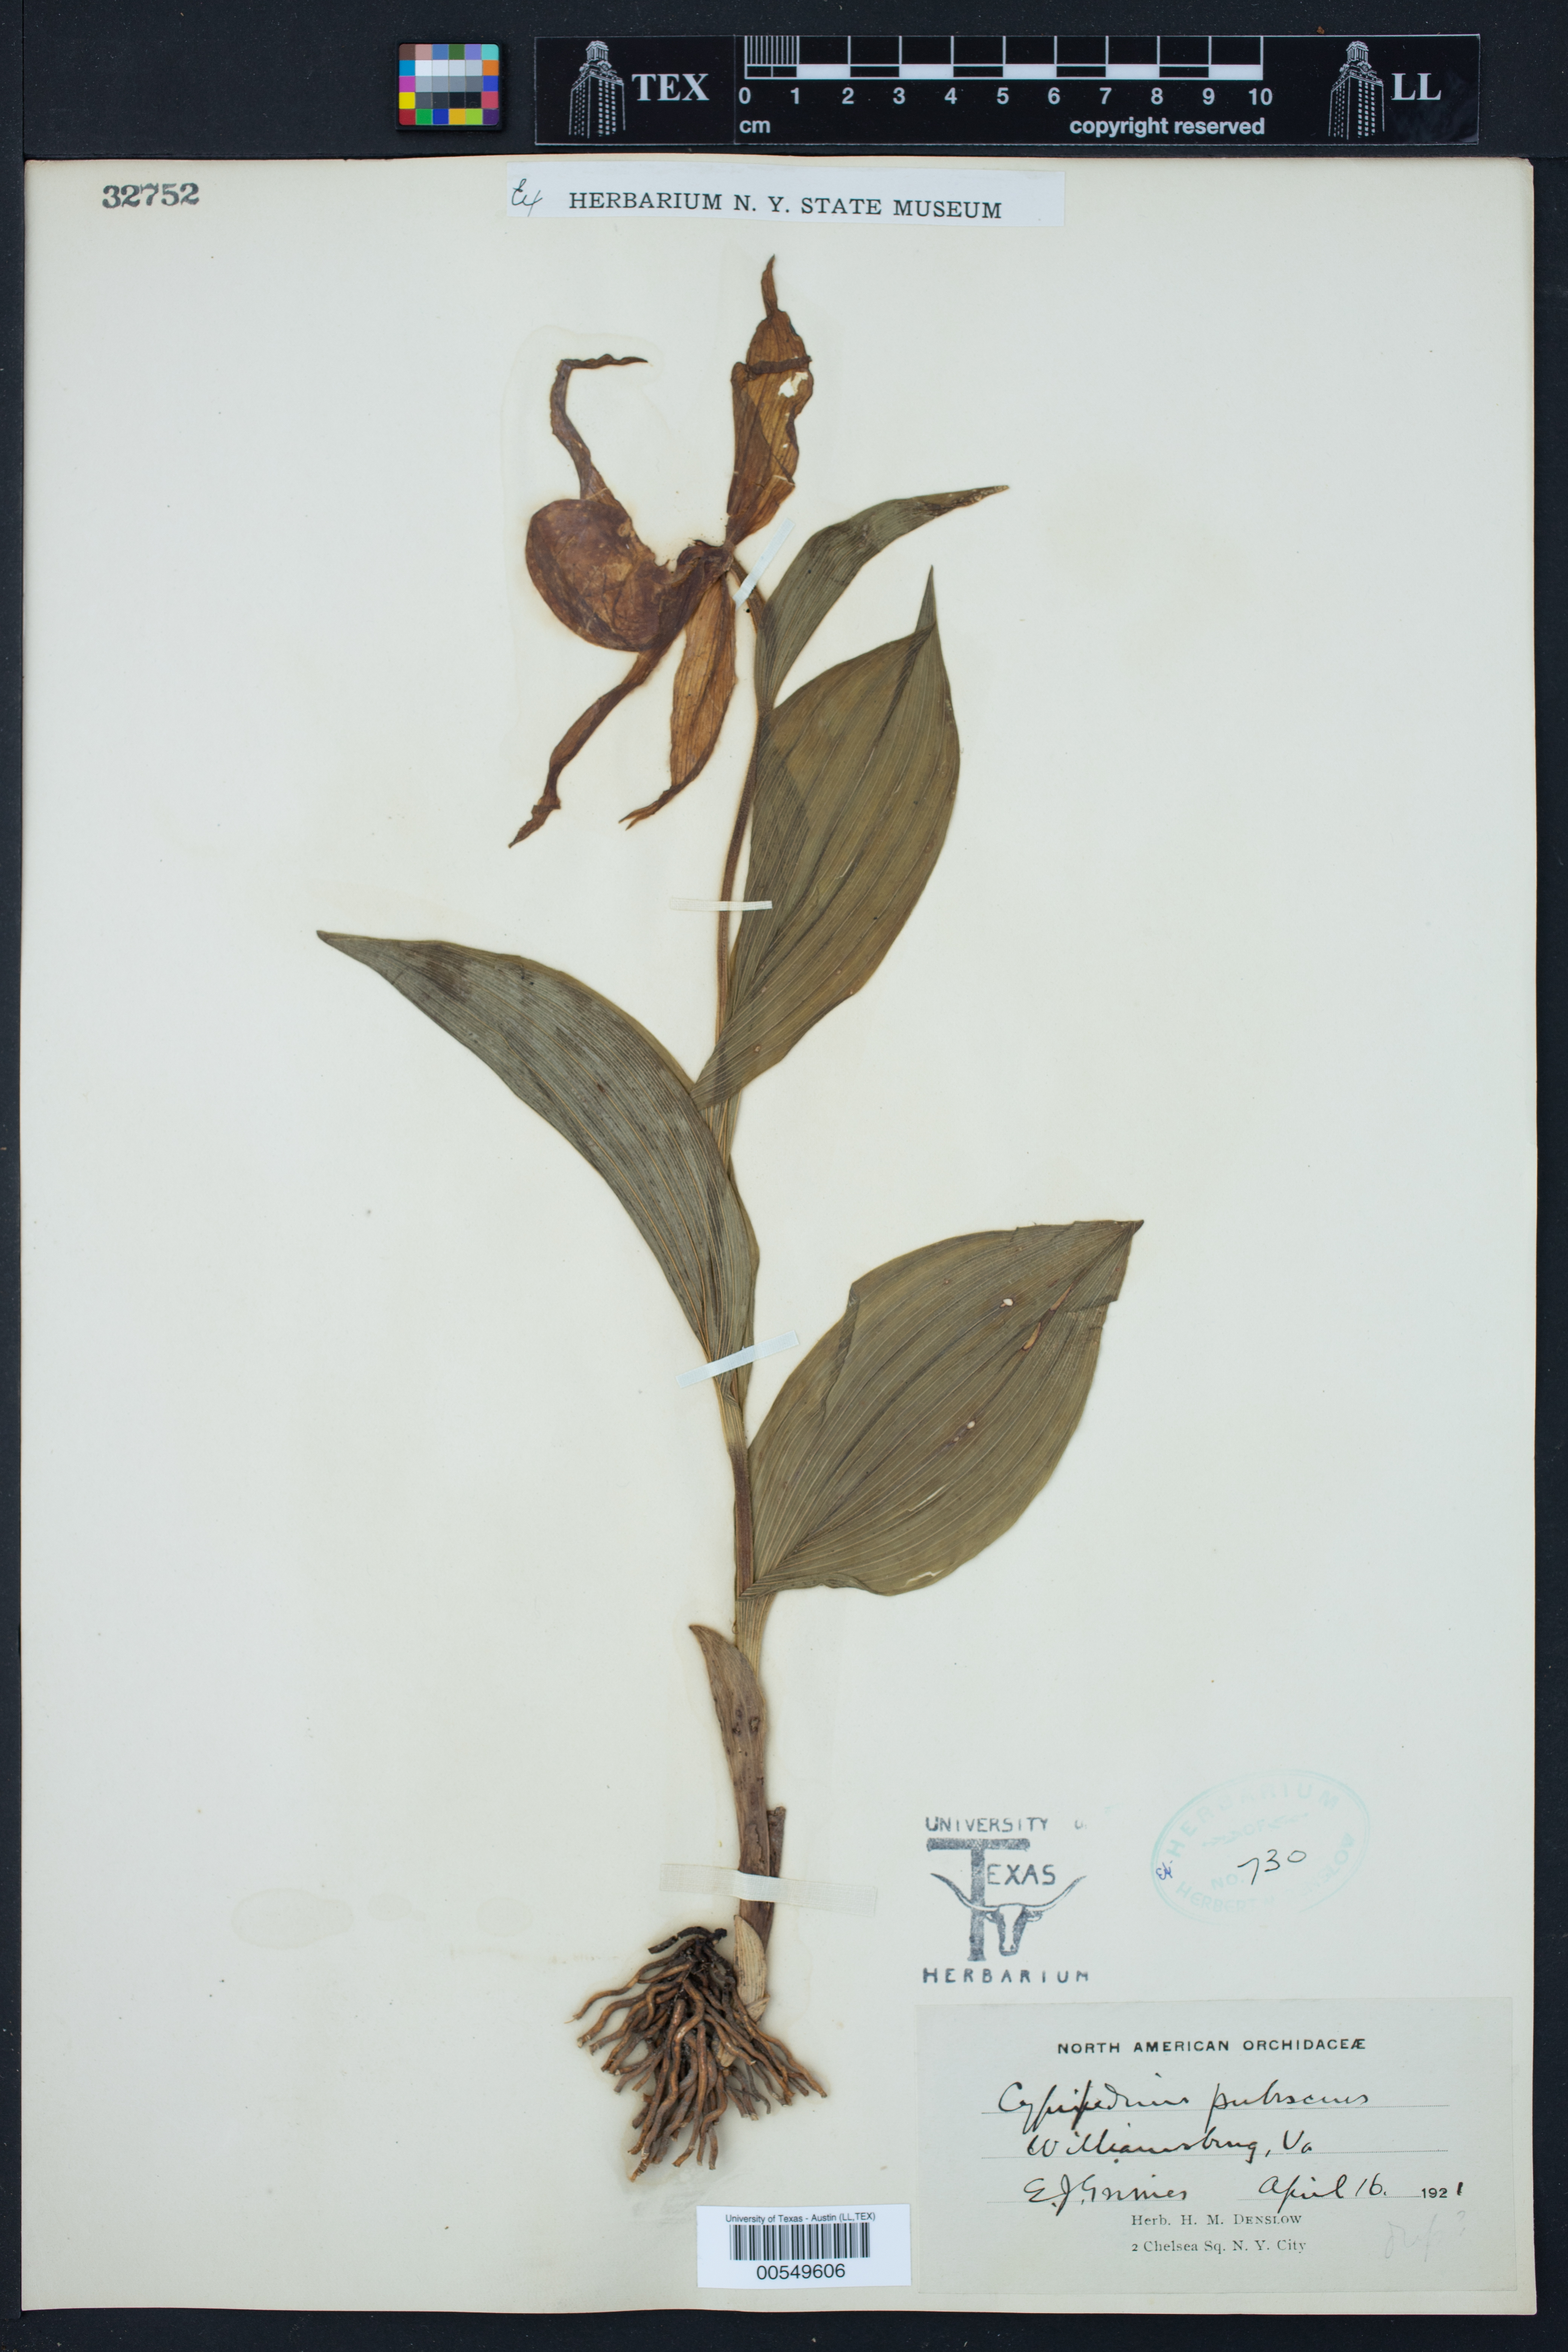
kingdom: Plantae
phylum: Tracheophyta
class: Liliopsida
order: Asparagales
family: Orchidaceae
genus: Cypripedium
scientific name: Cypripedium parviflorum
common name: American yellow lady's-slipper
